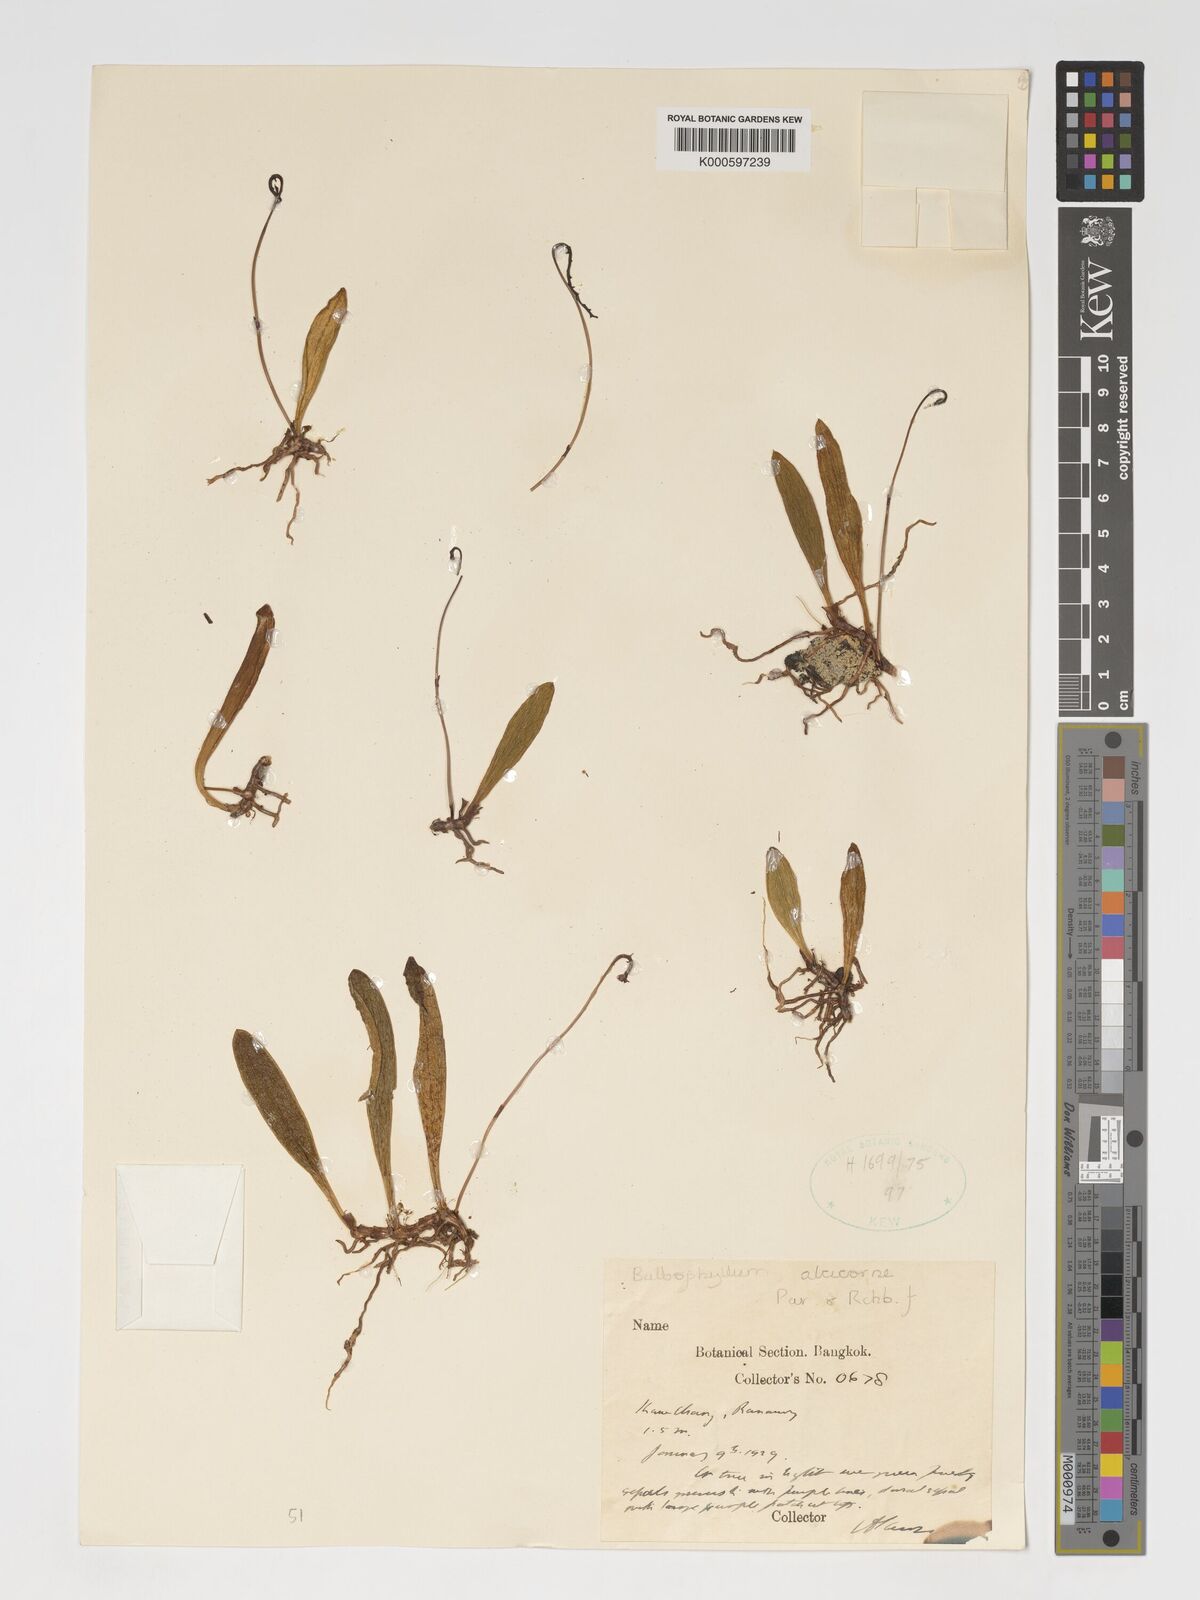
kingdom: Plantae
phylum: Tracheophyta
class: Liliopsida
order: Asparagales
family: Orchidaceae
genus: Bulbophyllum
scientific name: Bulbophyllum alcicorne
